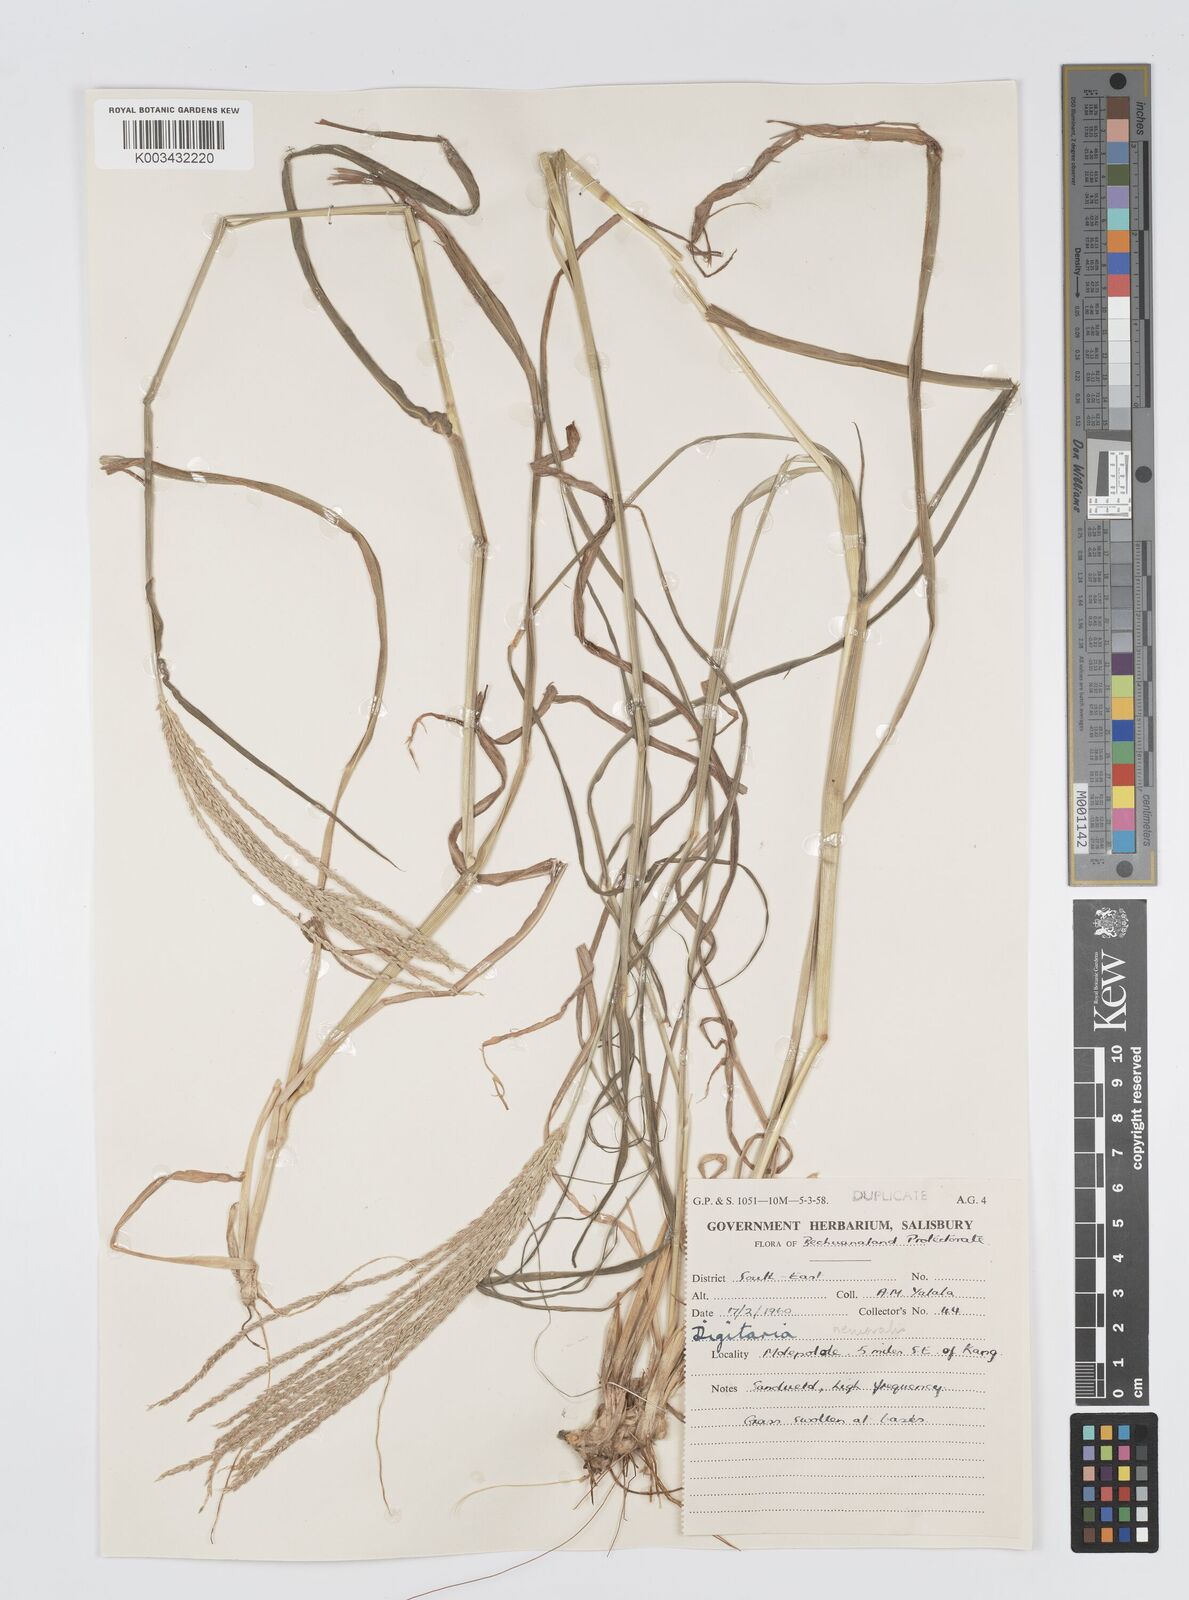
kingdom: Plantae
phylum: Tracheophyta
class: Liliopsida
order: Poales
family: Poaceae
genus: Digitaria
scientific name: Digitaria milanjiana
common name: Madagascar crabgrass
